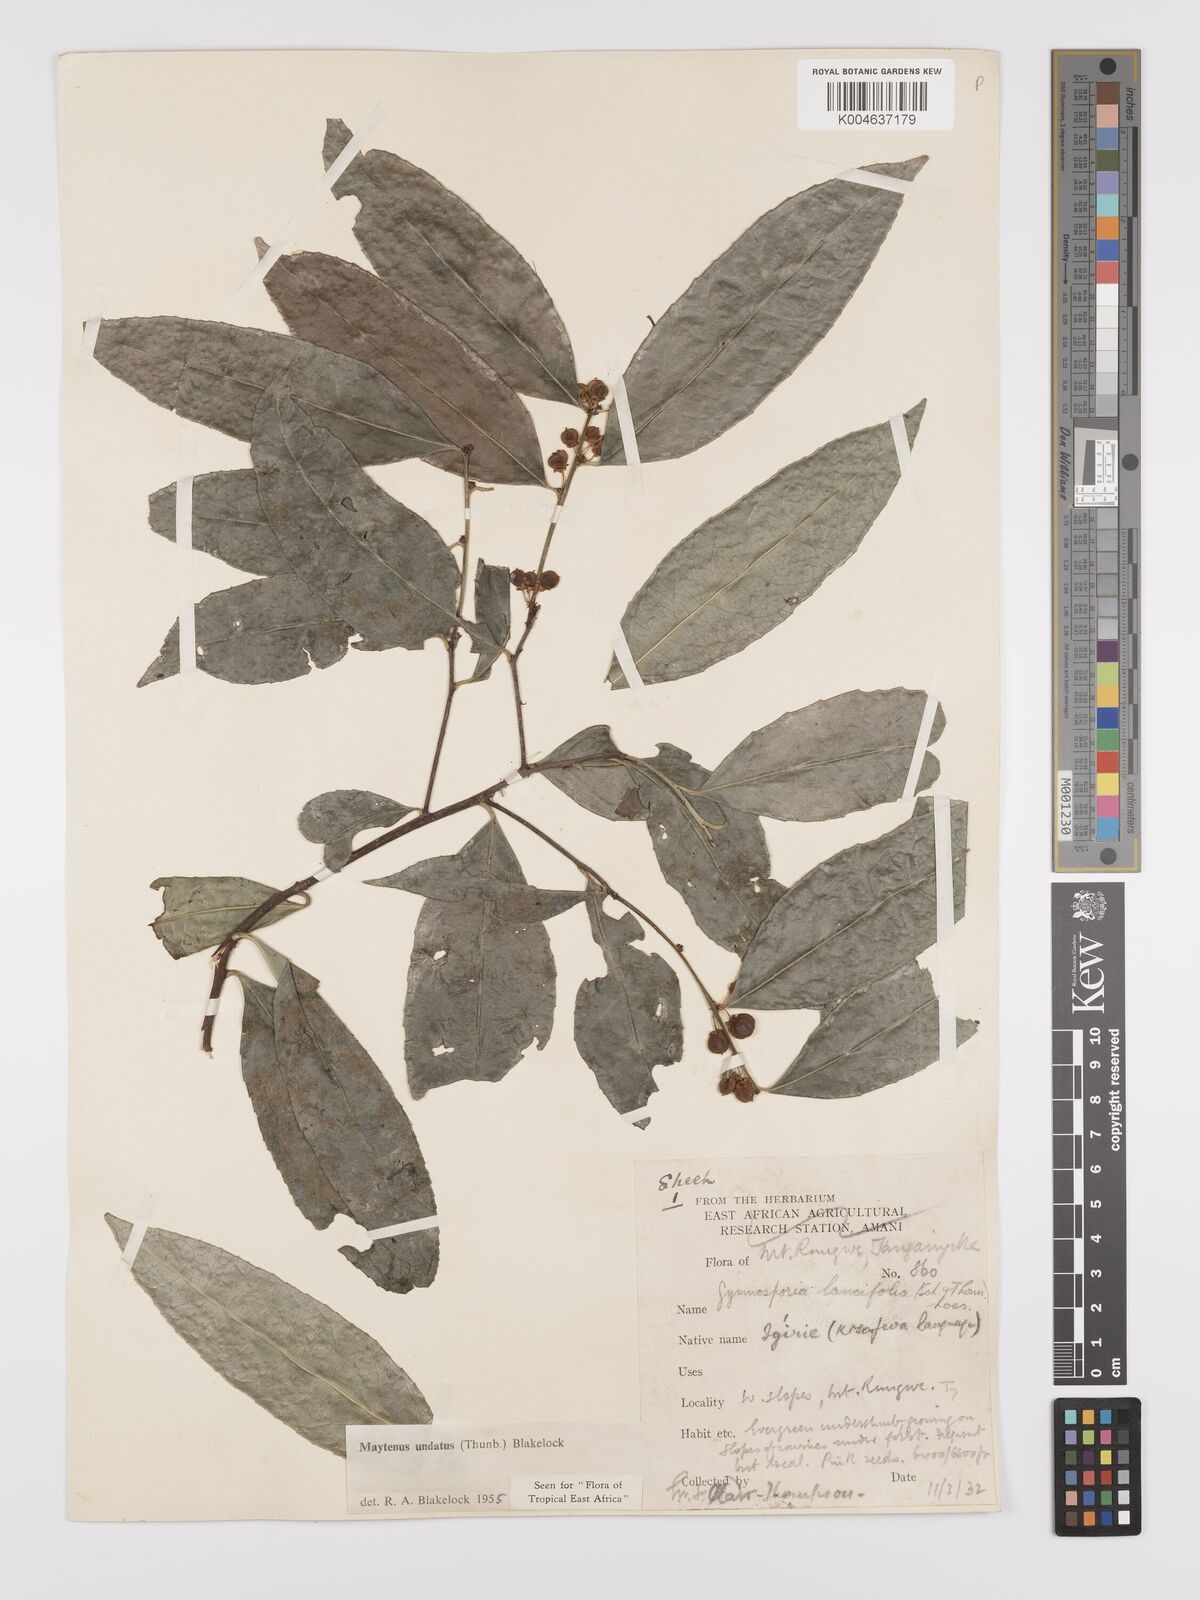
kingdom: Plantae
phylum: Tracheophyta
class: Magnoliopsida
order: Celastrales
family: Celastraceae
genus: Gymnosporia
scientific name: Gymnosporia undata
